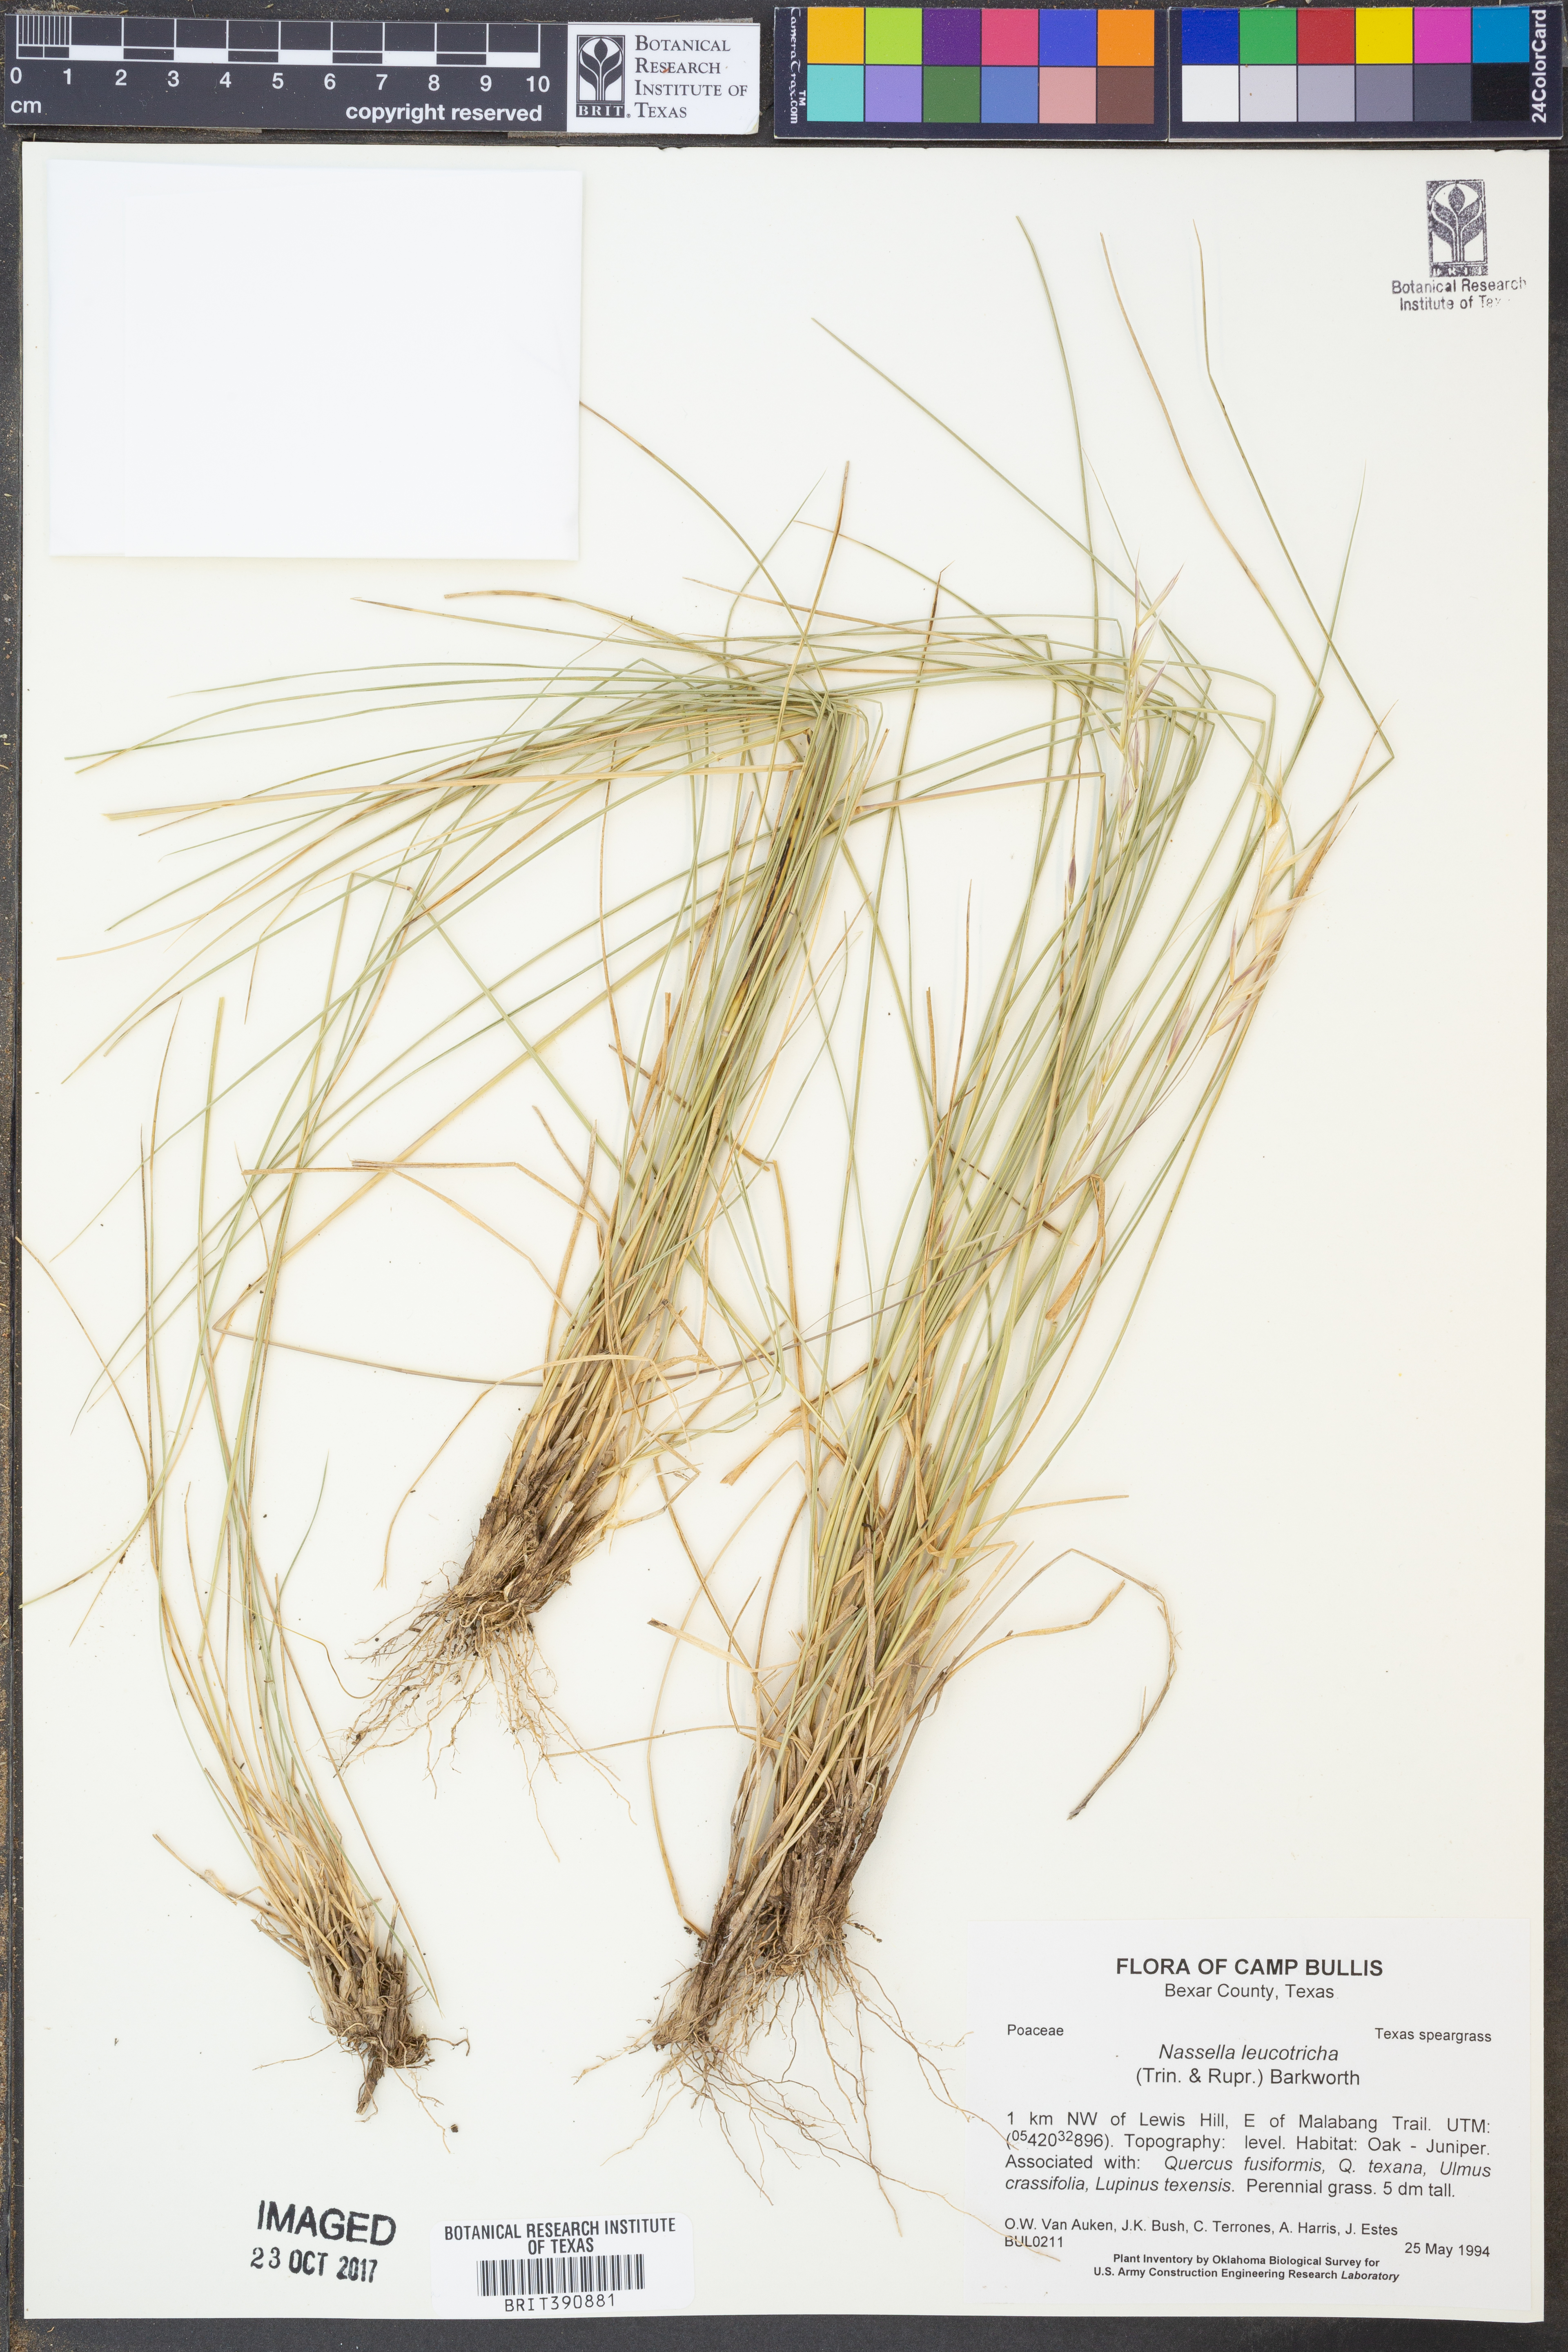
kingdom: Plantae
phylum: Tracheophyta
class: Liliopsida
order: Poales
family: Poaceae
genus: Nassella
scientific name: Nassella leucotricha
